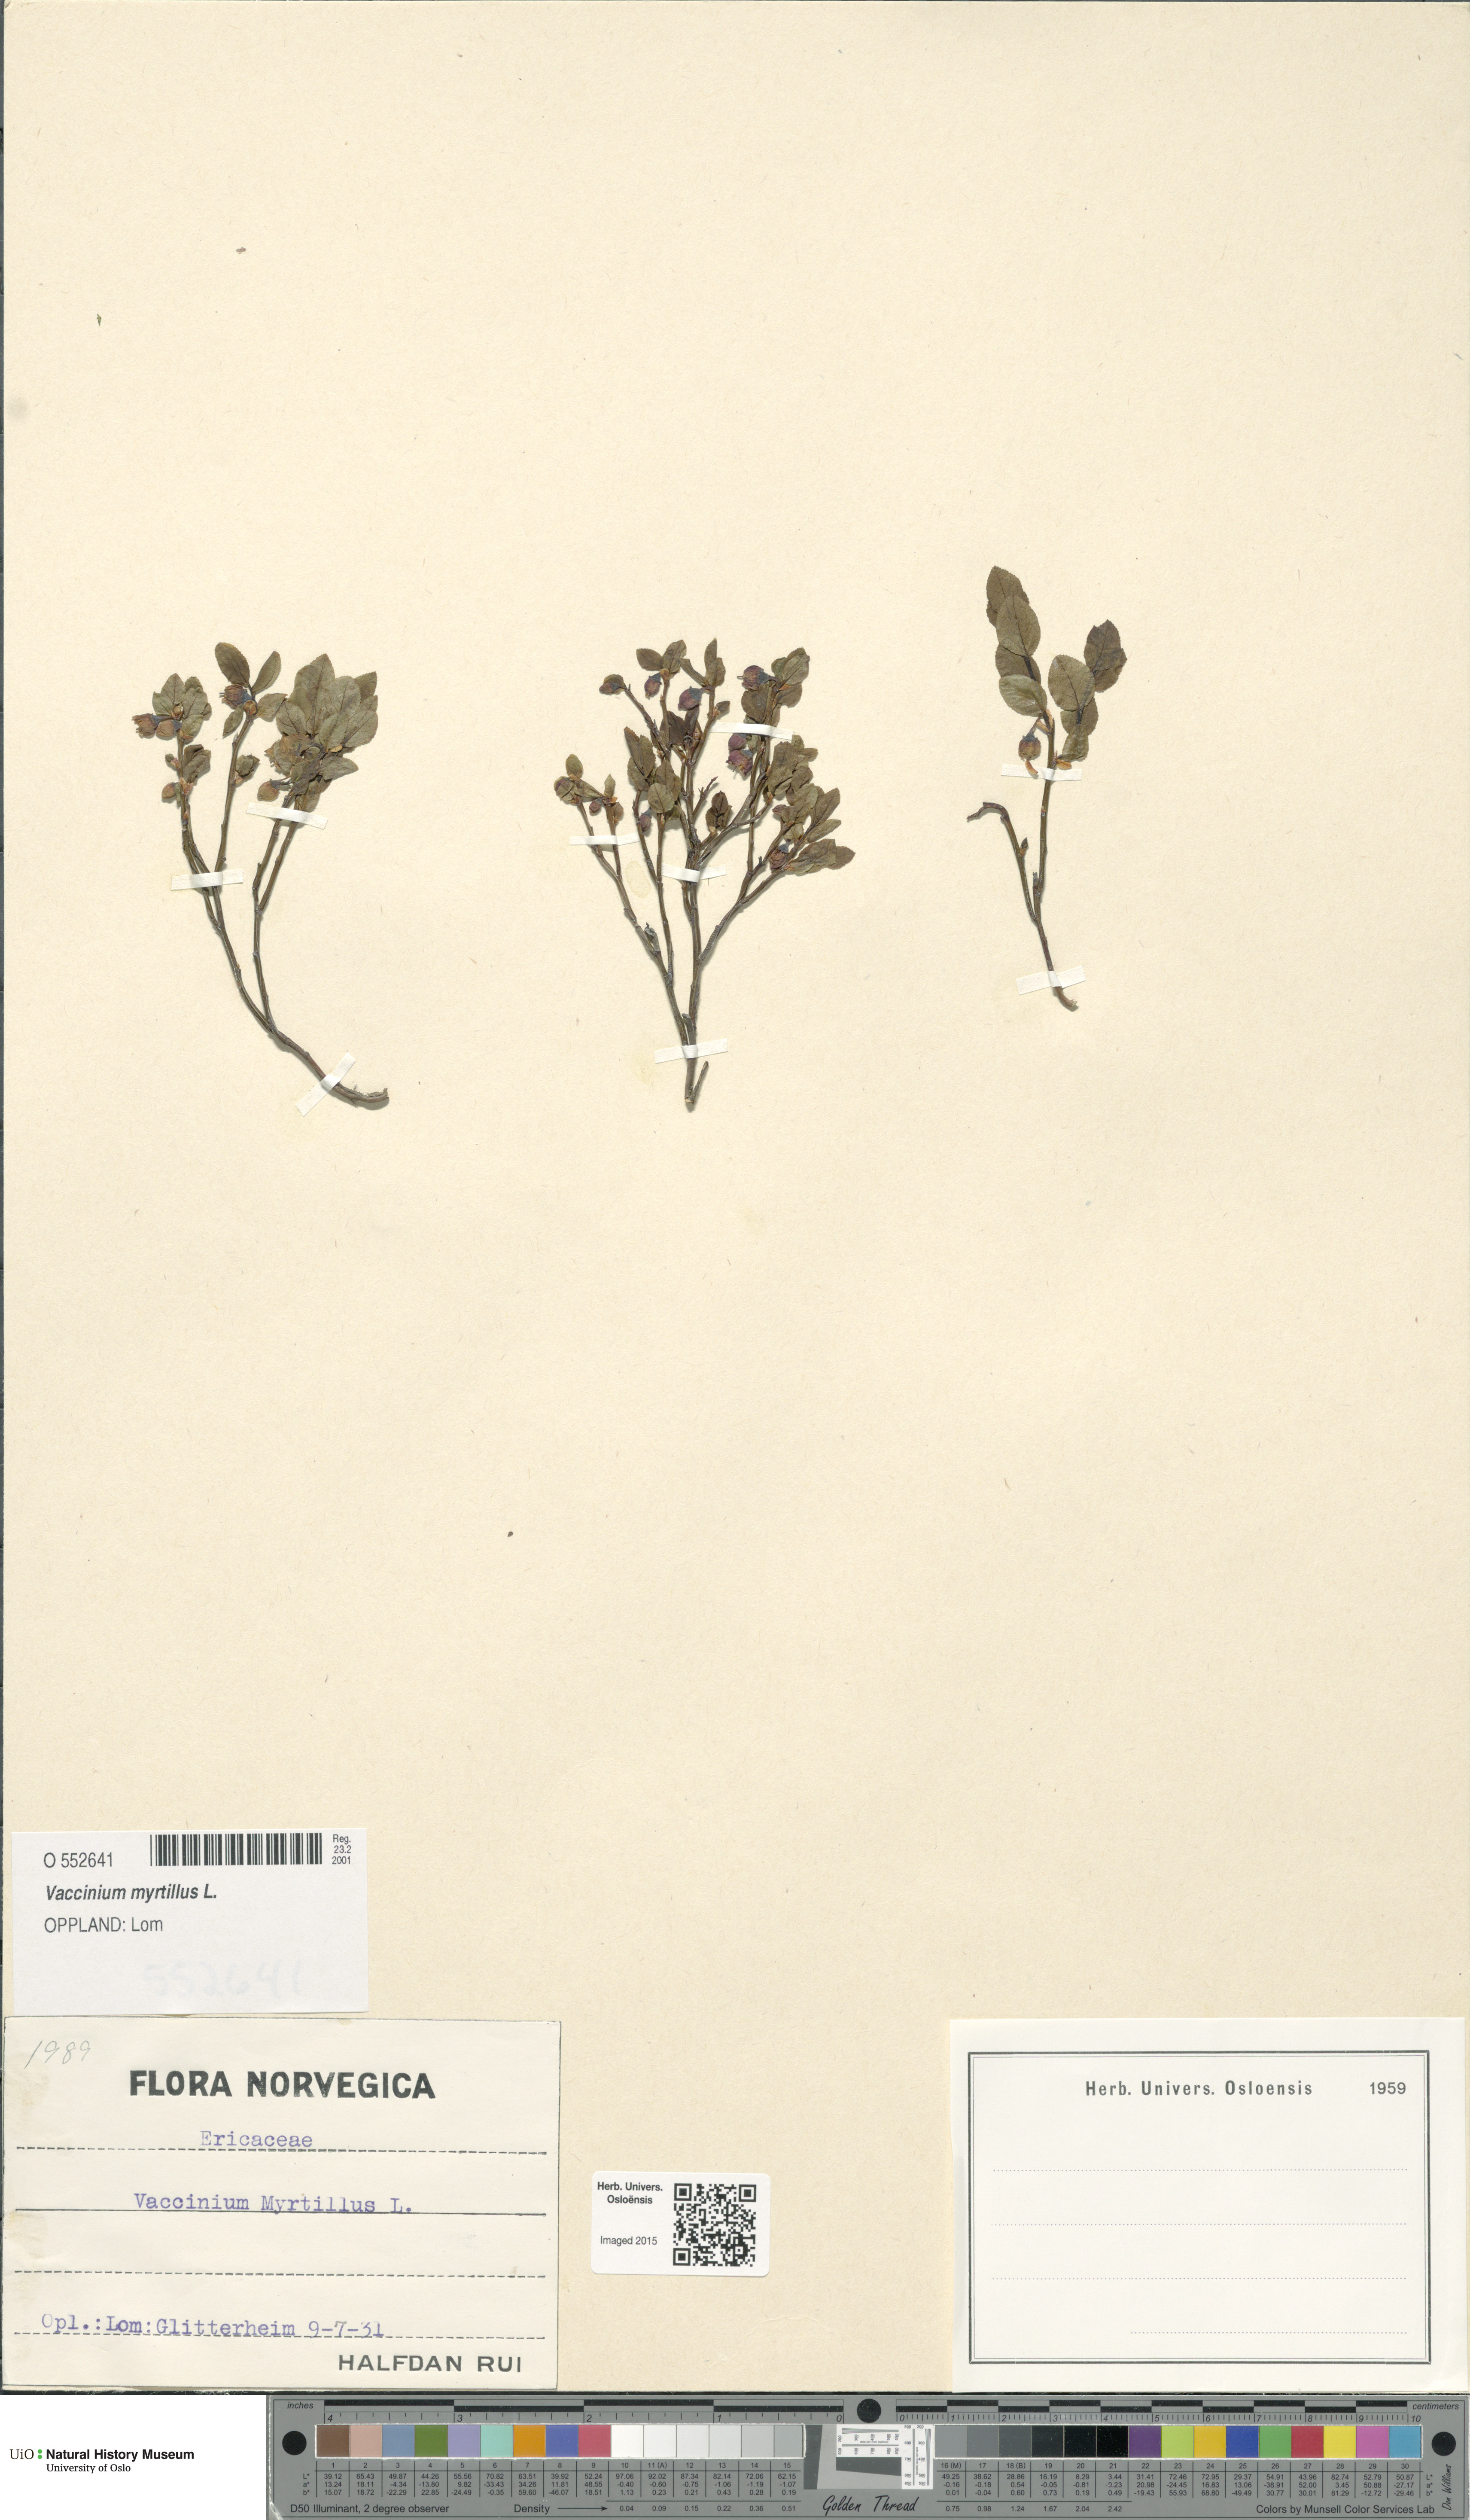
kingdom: Plantae
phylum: Tracheophyta
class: Magnoliopsida
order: Ericales
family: Ericaceae
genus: Vaccinium
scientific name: Vaccinium myrtillus
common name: Bilberry
